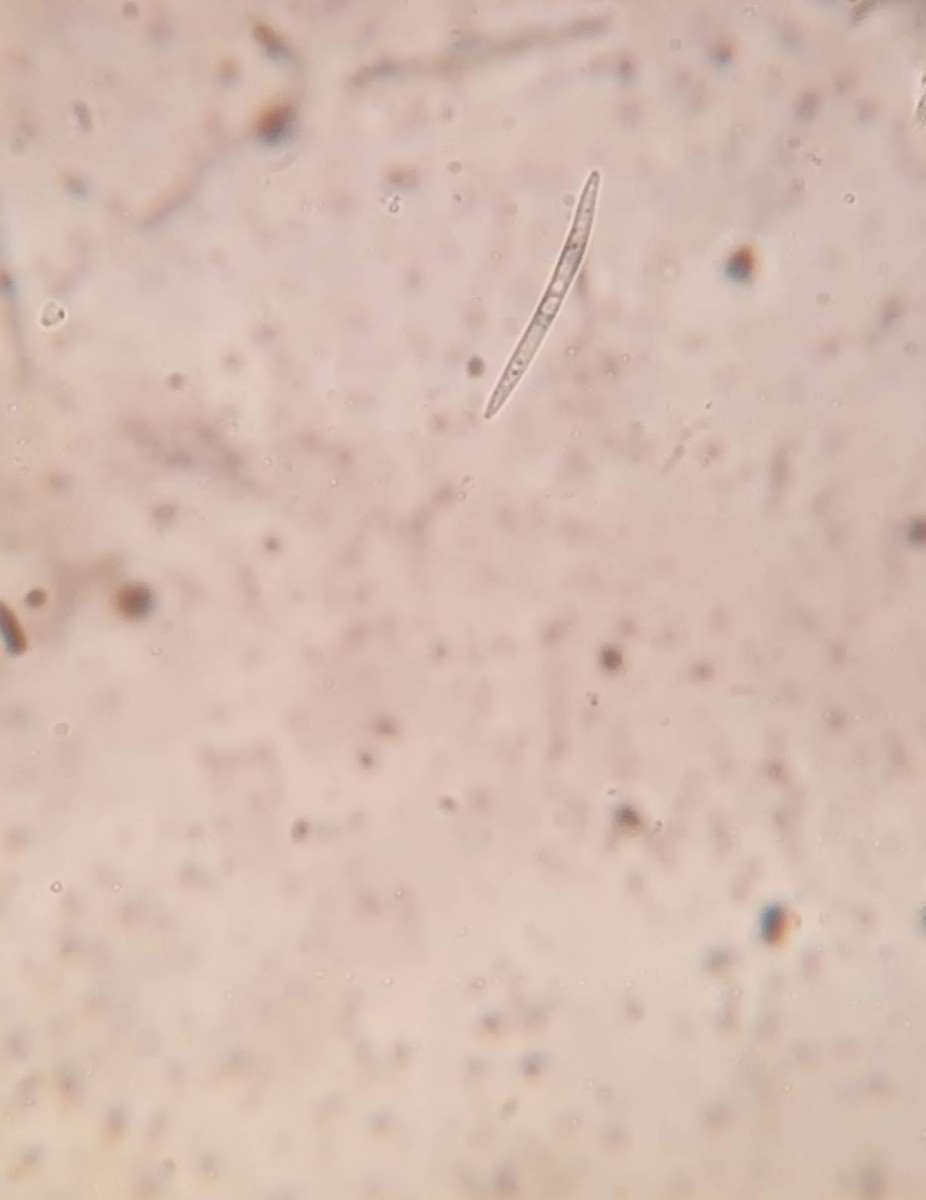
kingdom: Fungi
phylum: Ascomycota
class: Leotiomycetes
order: Chaetomellales
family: Chaetomellaceae
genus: Sphaerographium
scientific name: Sphaerographium squarrosum
